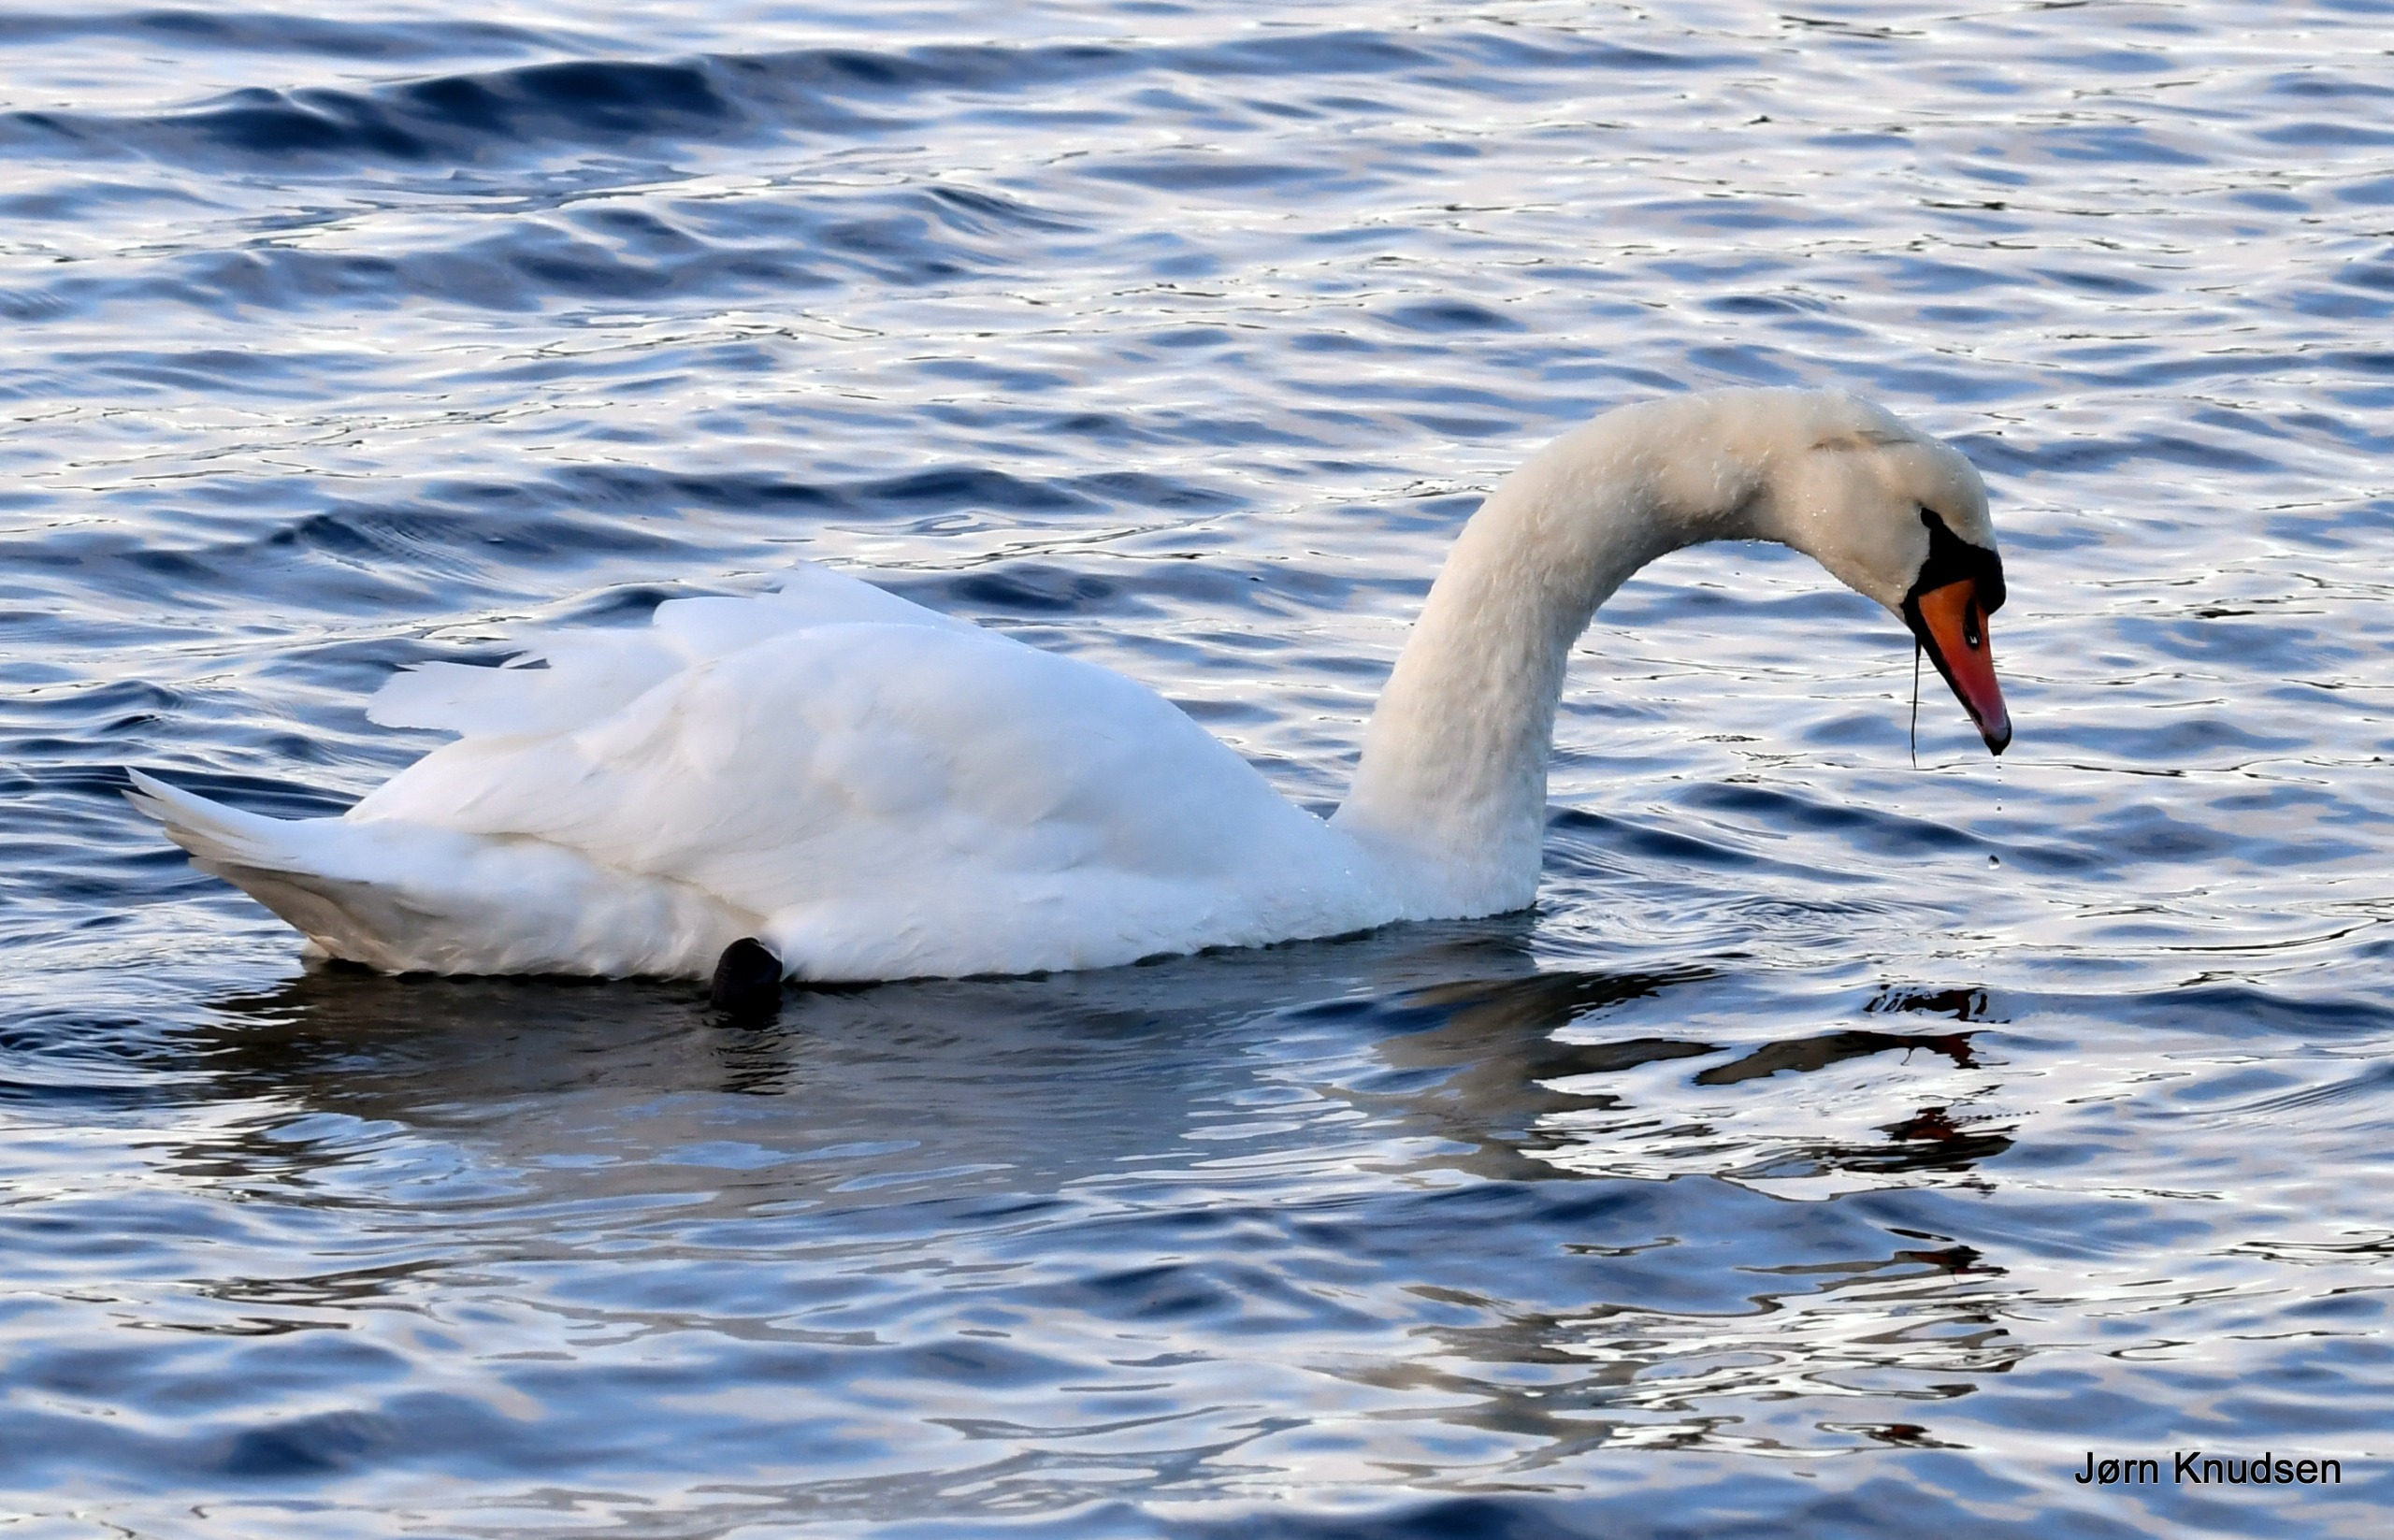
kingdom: Animalia
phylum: Chordata
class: Aves
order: Anseriformes
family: Anatidae
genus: Cygnus
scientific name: Cygnus olor
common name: Knopsvane
